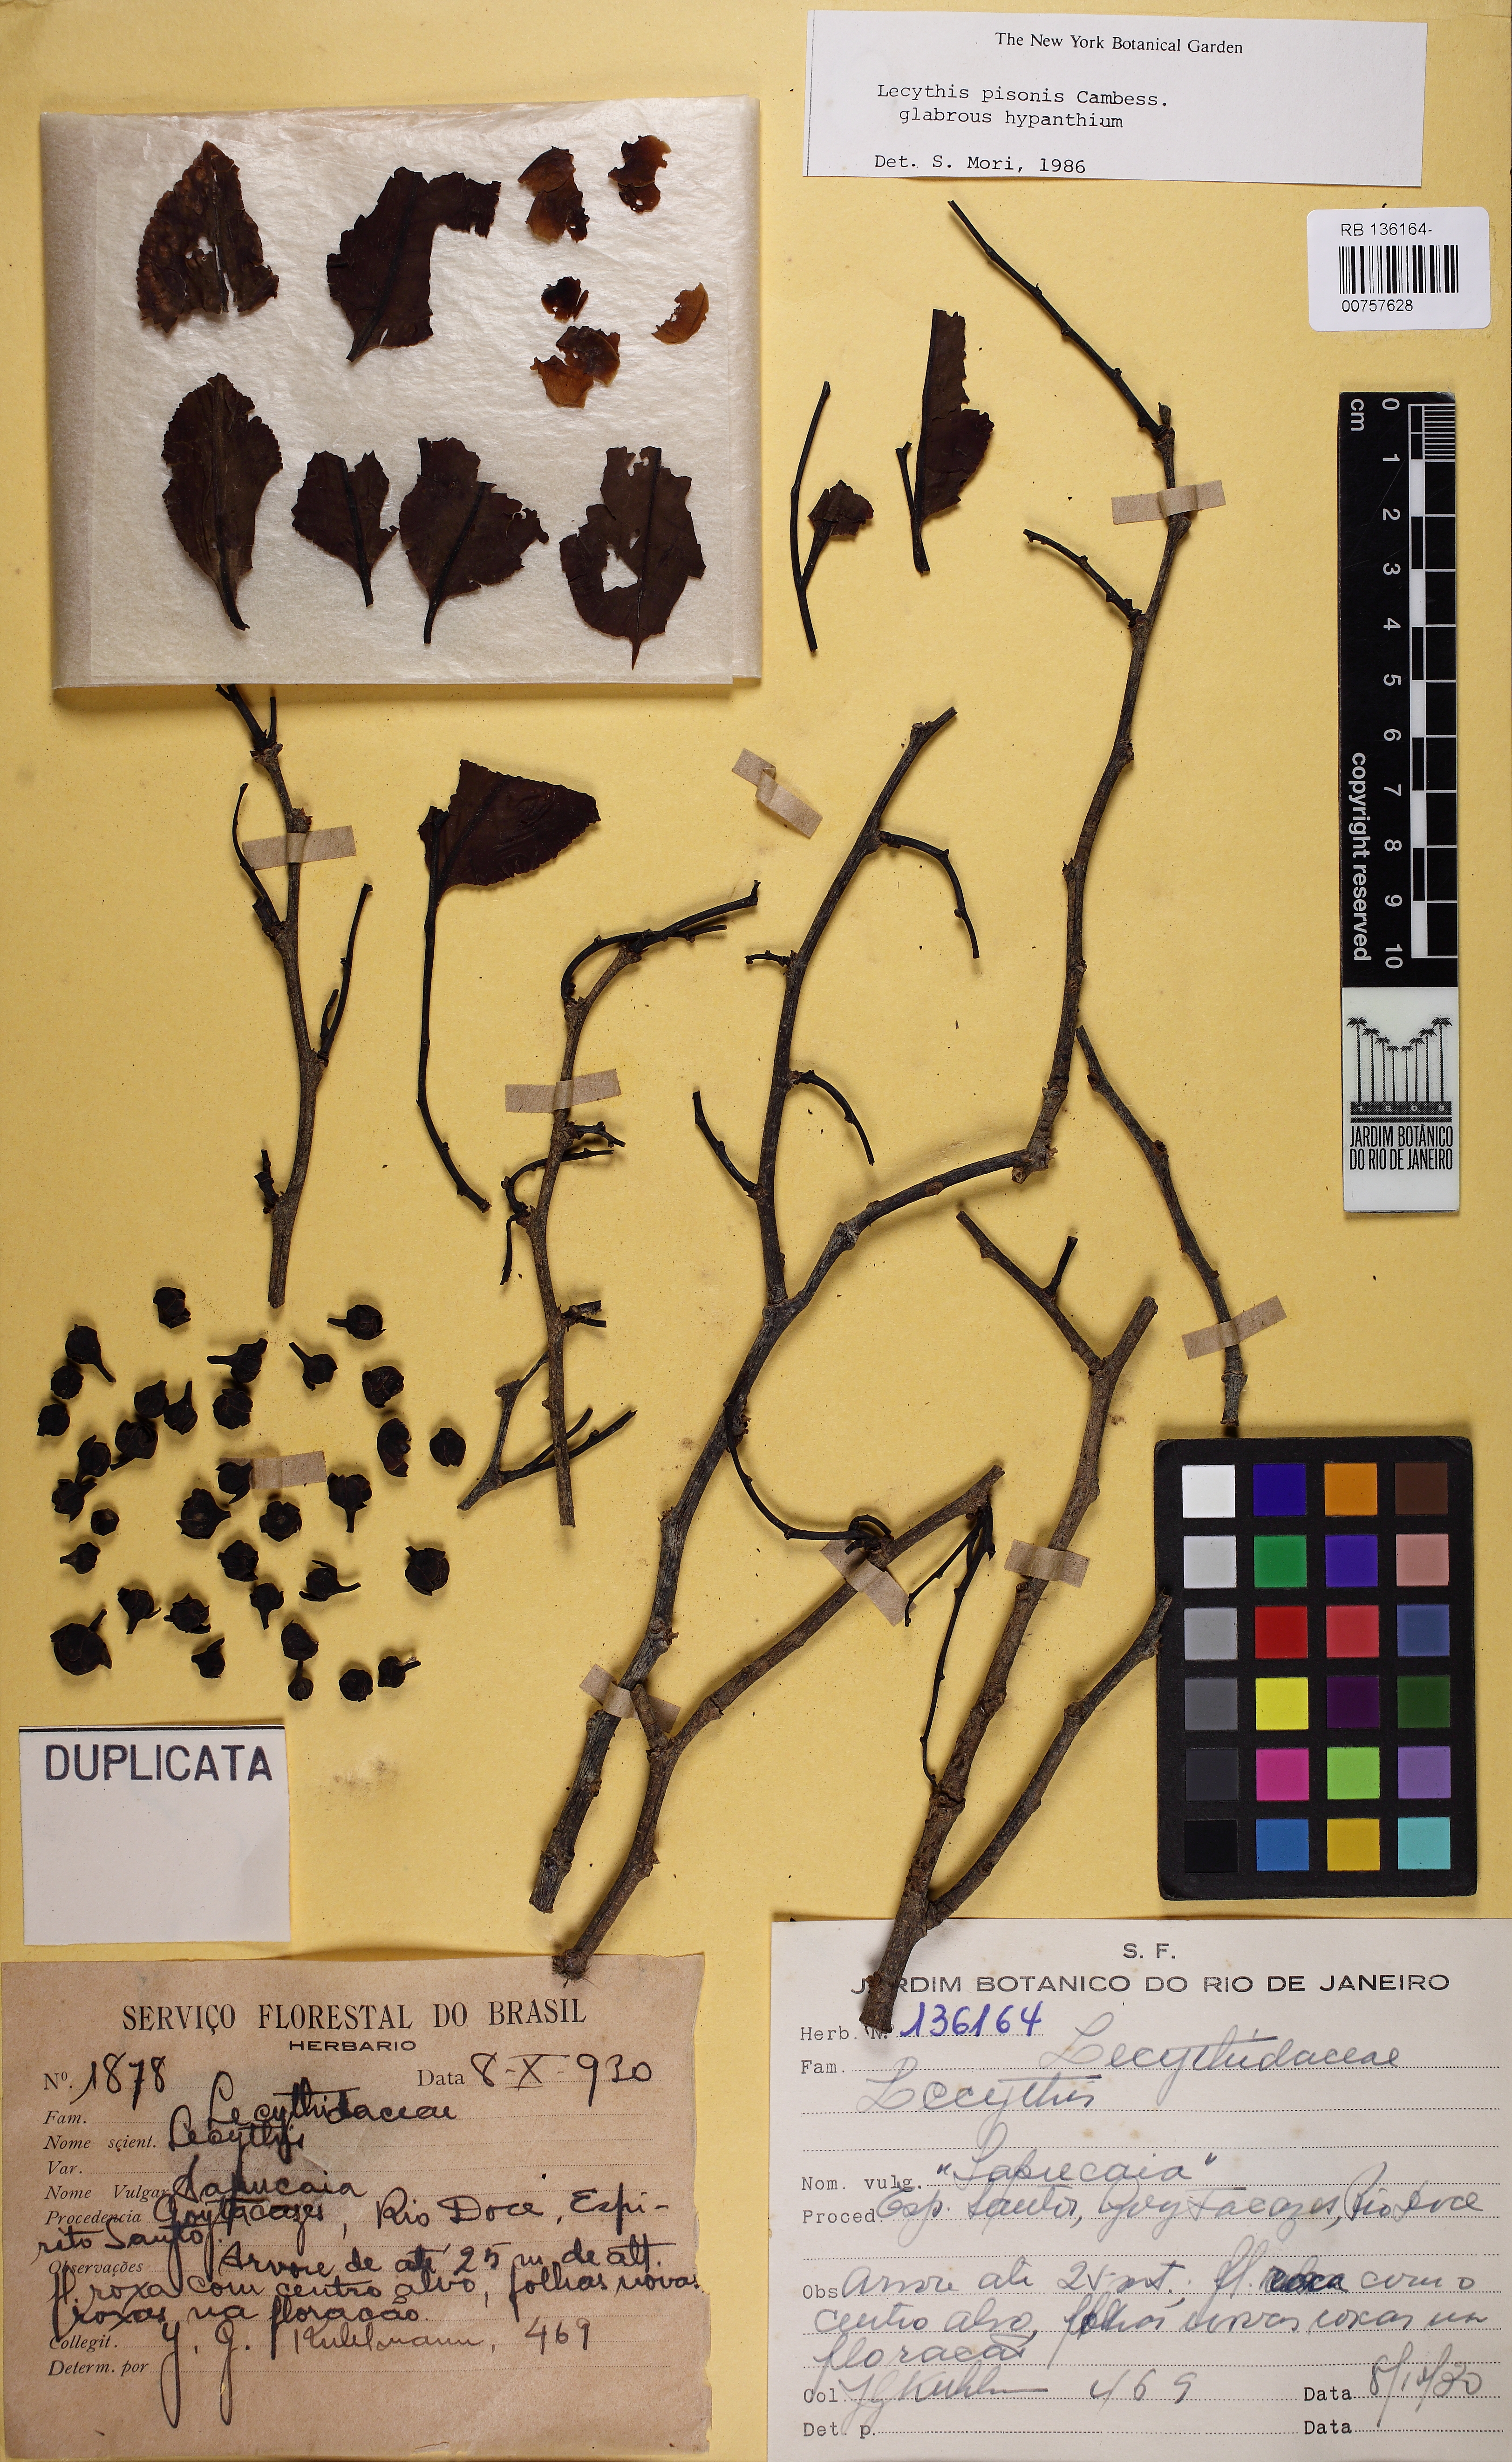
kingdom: Plantae
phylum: Tracheophyta
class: Magnoliopsida
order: Ericales
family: Lecythidaceae
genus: Lecythis
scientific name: Lecythis pisonis
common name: Paradise-nut
